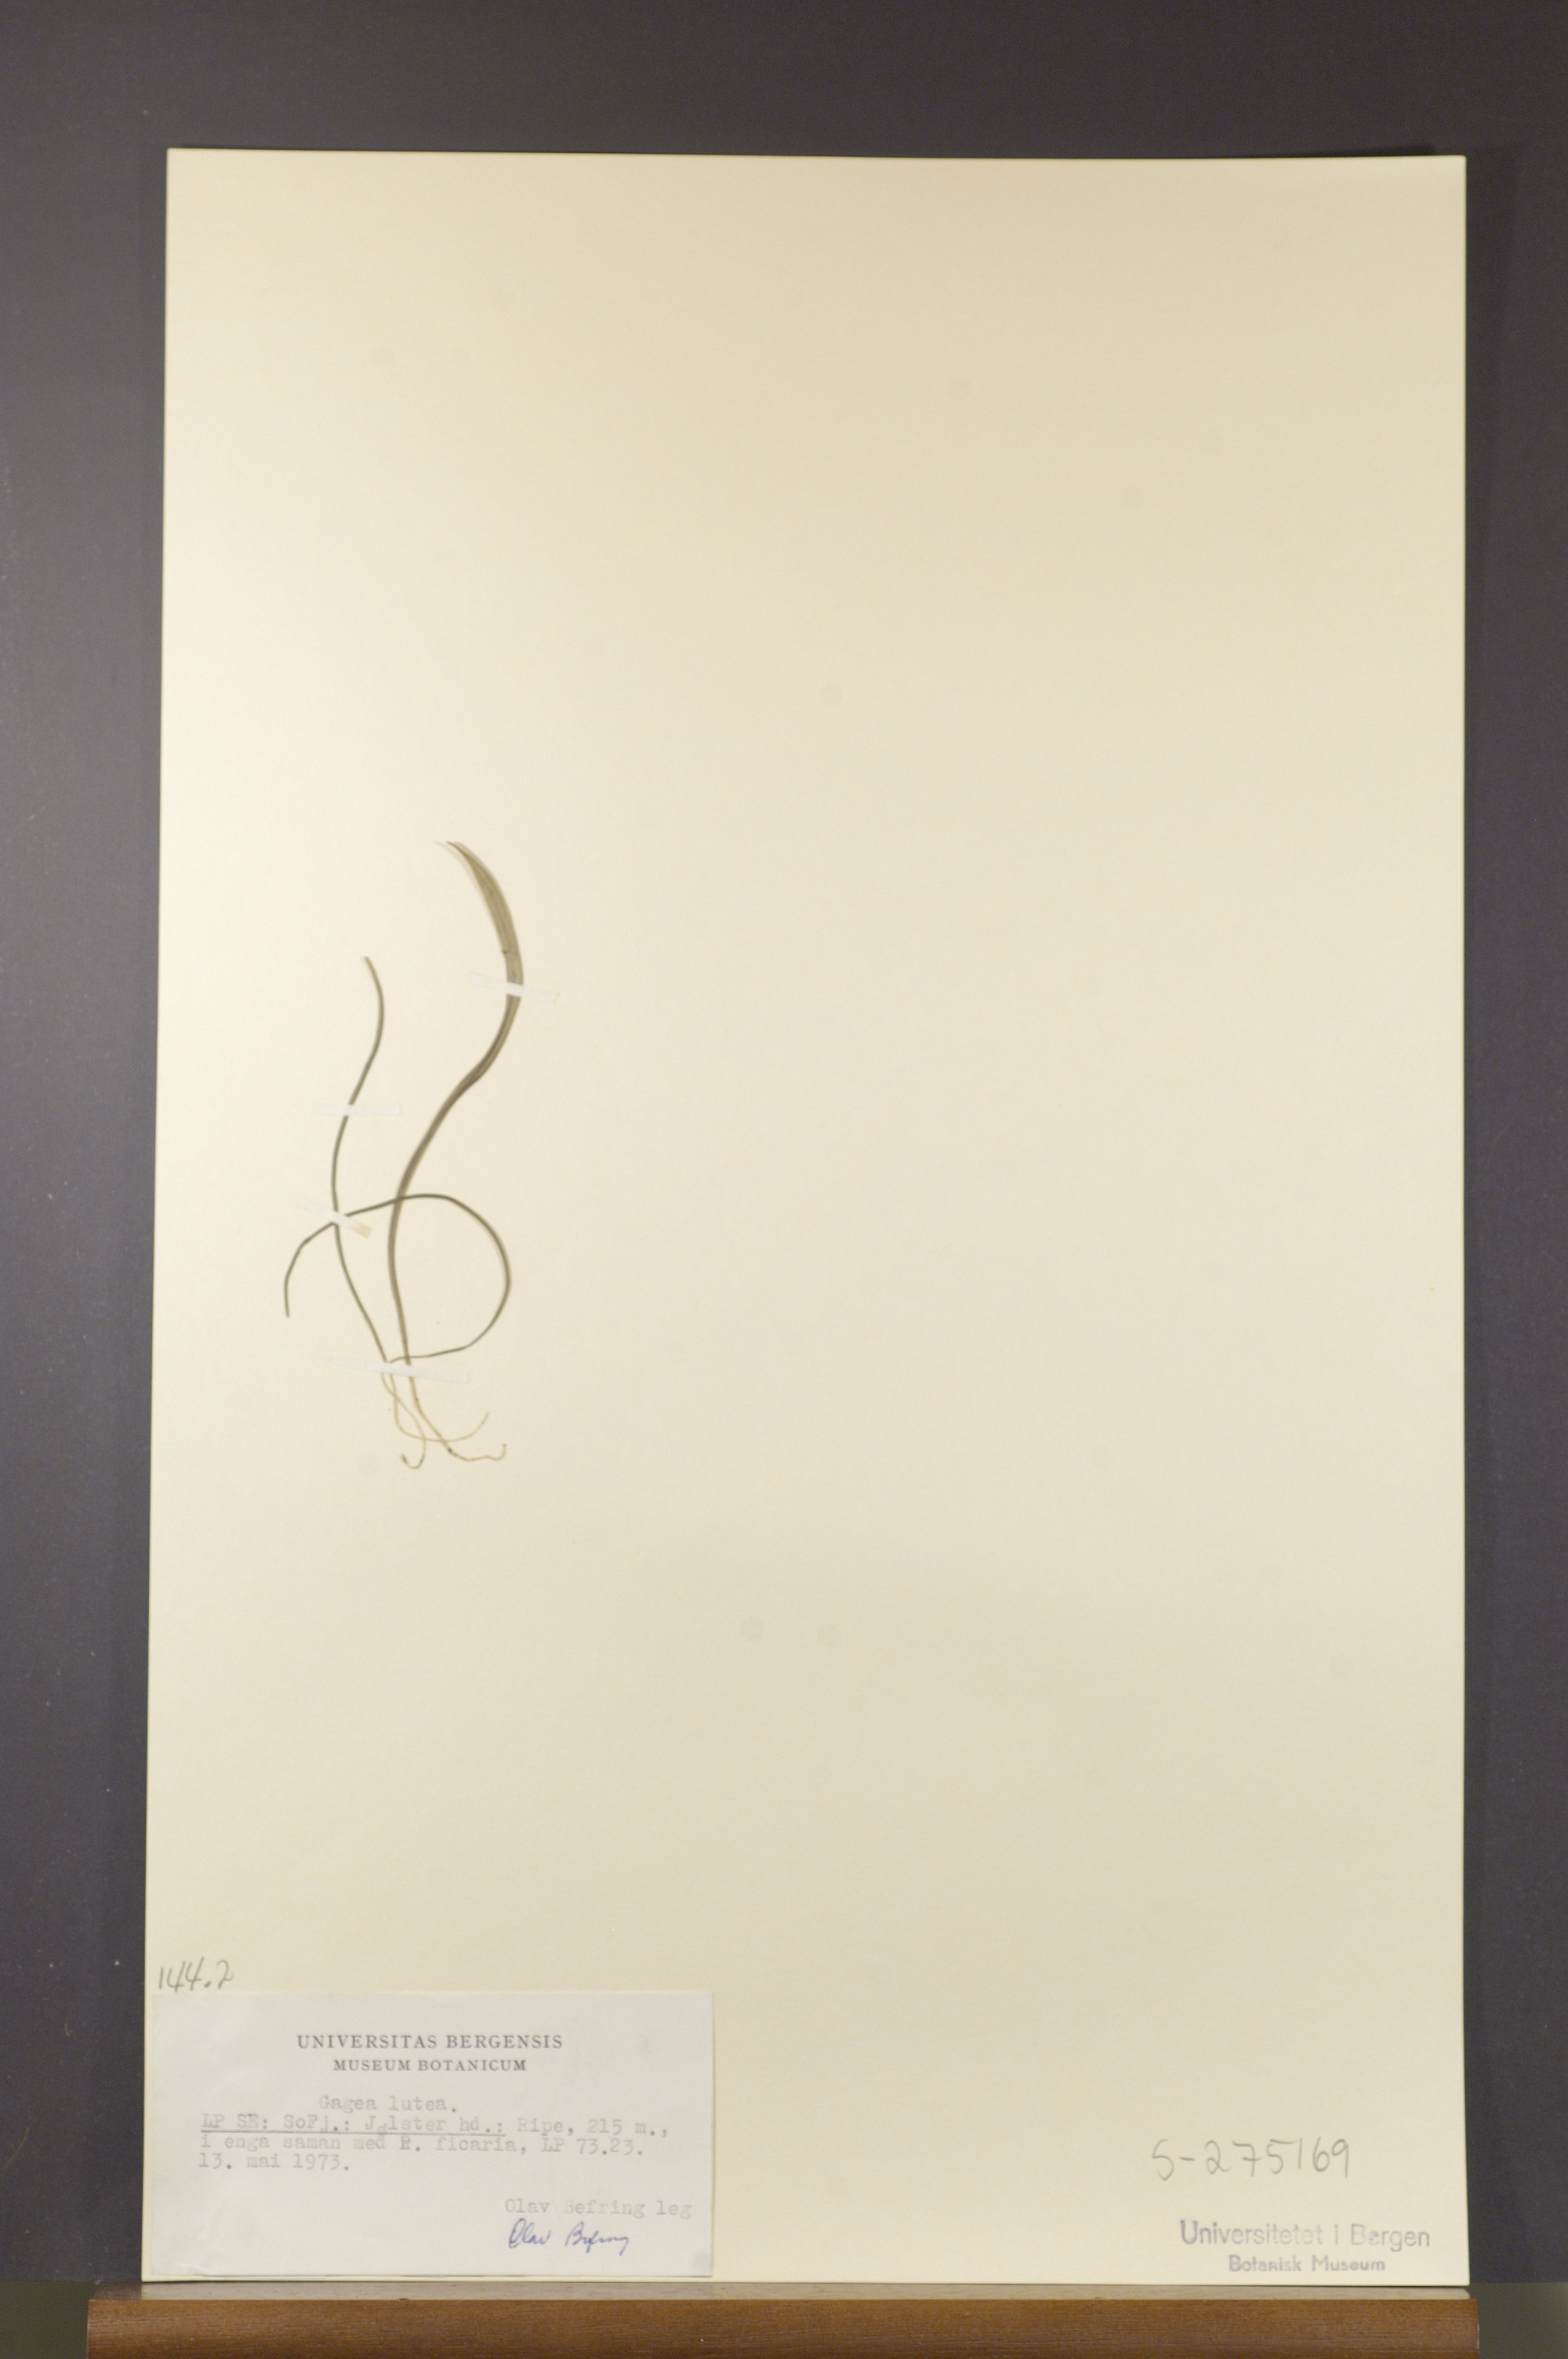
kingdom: Plantae
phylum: Tracheophyta
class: Liliopsida
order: Liliales
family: Liliaceae
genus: Gagea
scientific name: Gagea lutea
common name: Yellow star-of-bethlehem
